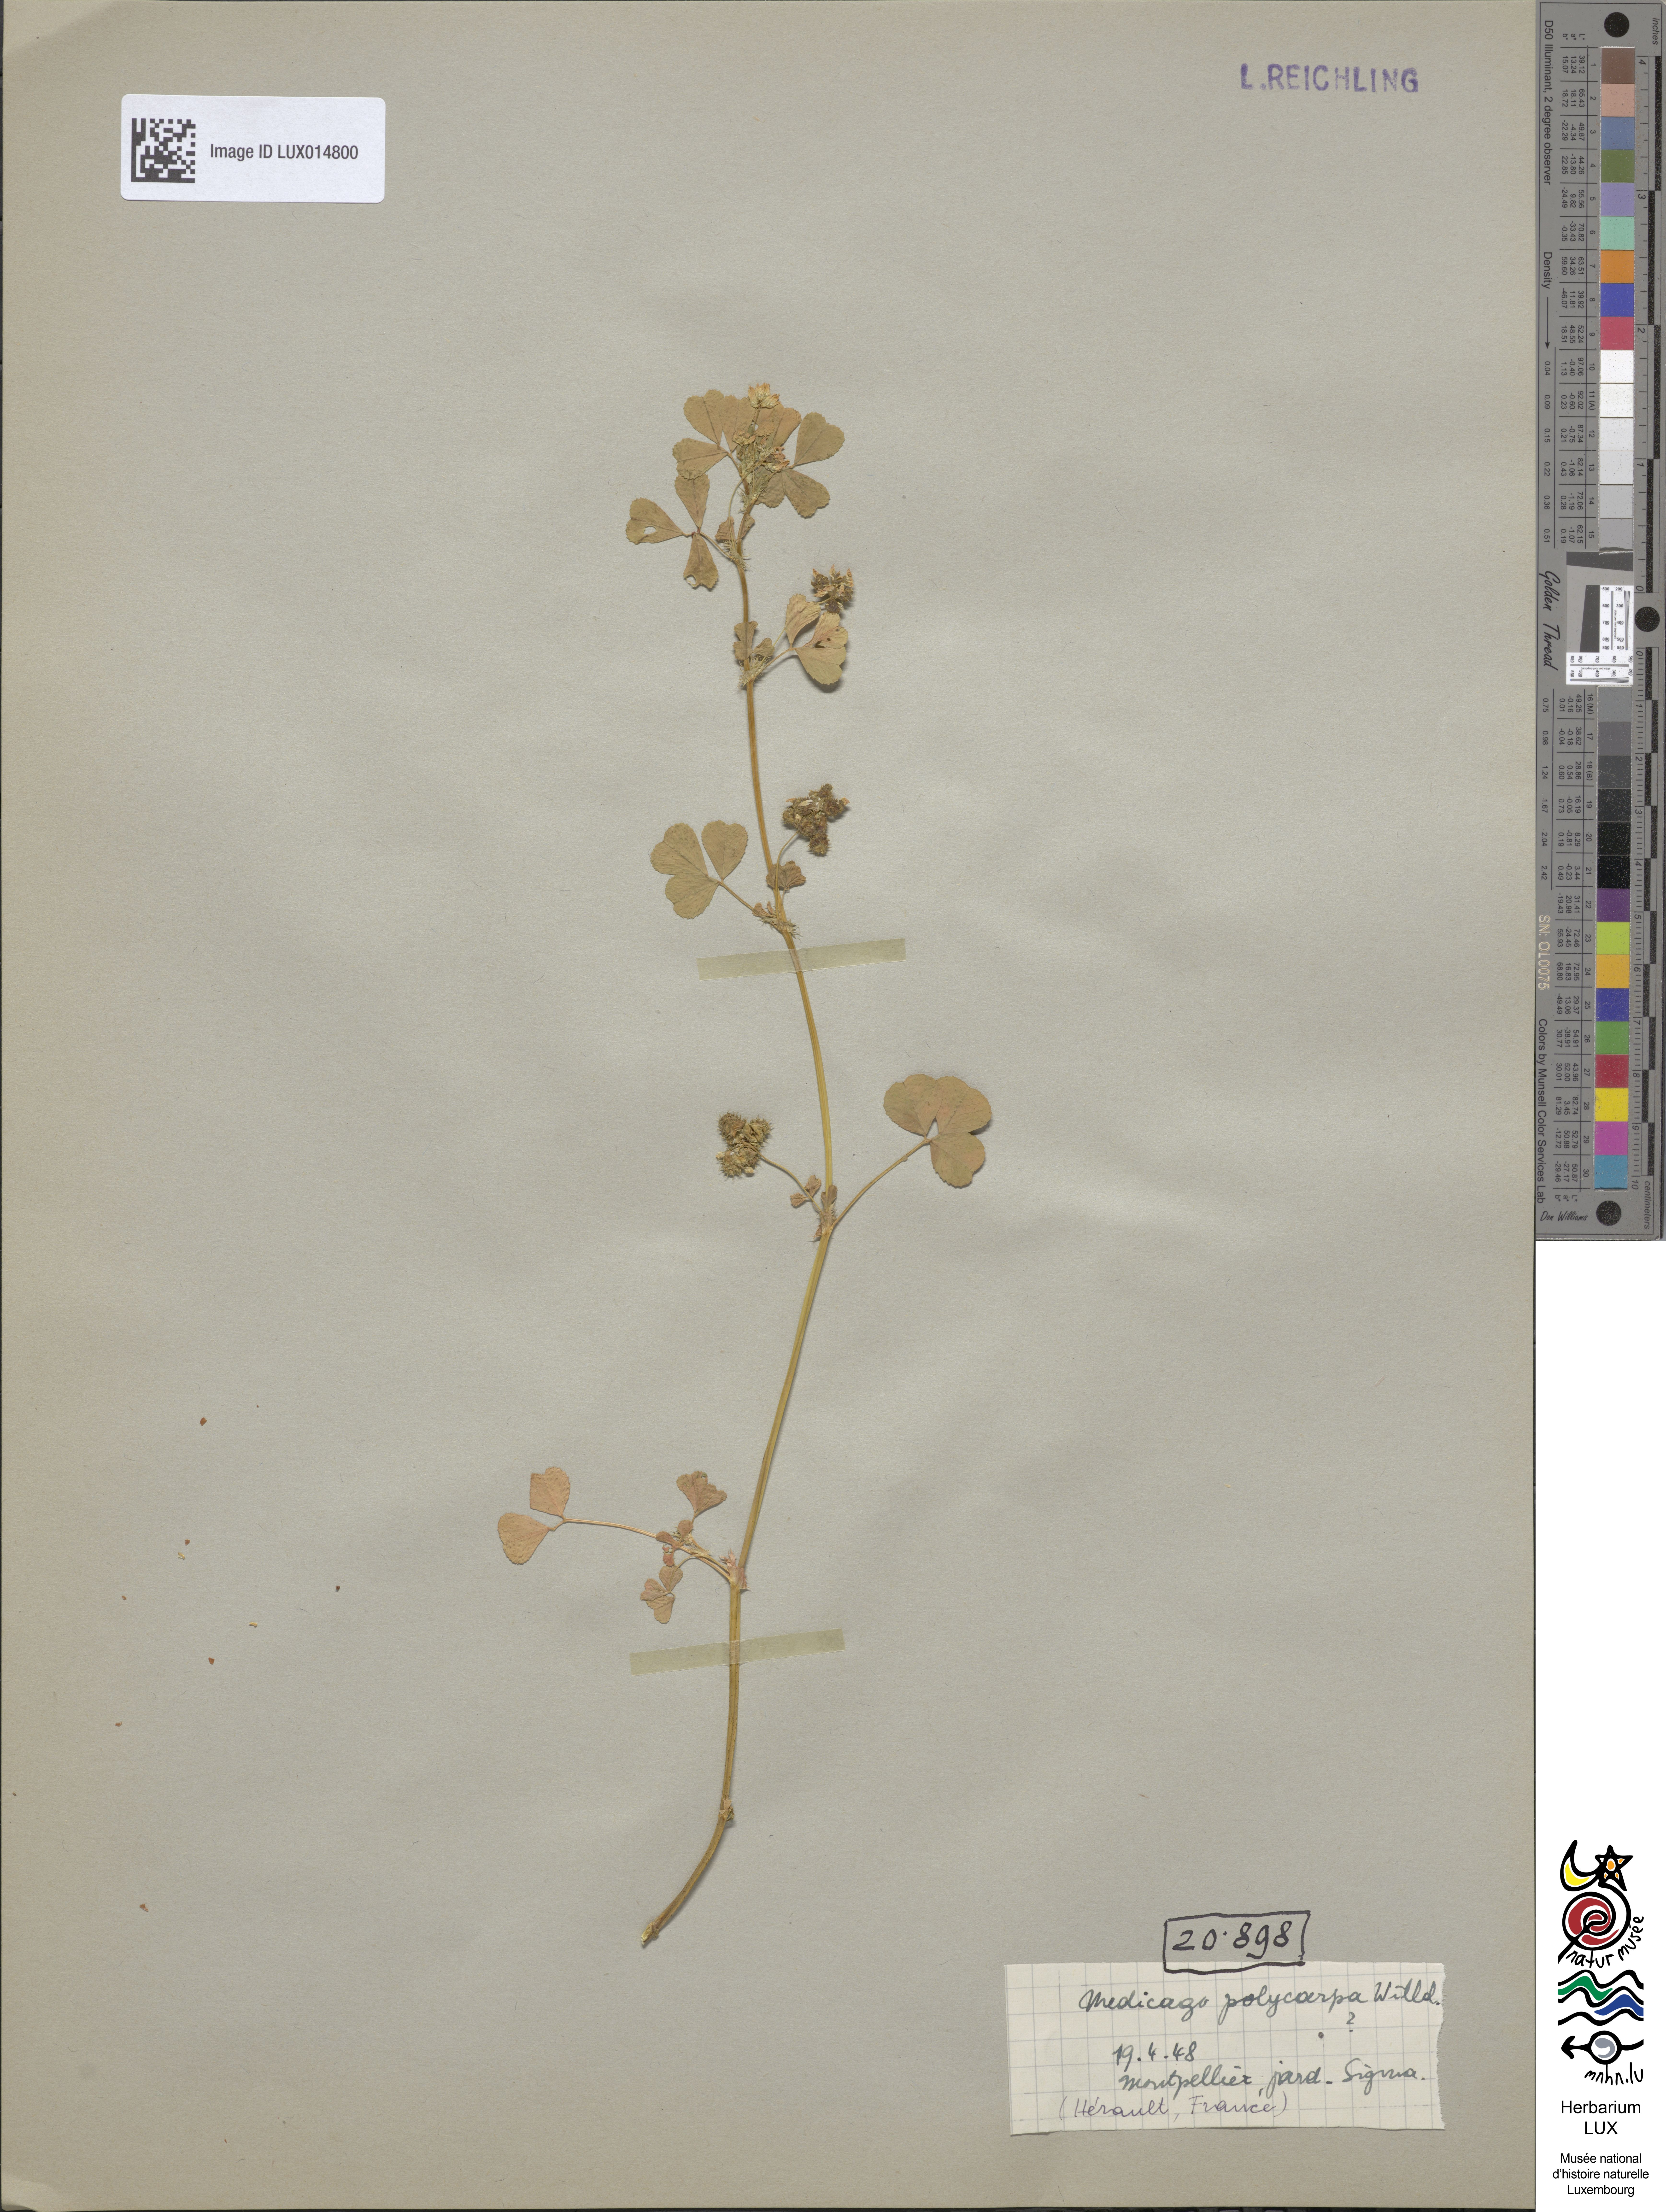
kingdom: Plantae
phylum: Tracheophyta
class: Magnoliopsida
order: Fabales
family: Fabaceae
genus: Medicago
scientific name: Medicago polymorpha
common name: Burclover
